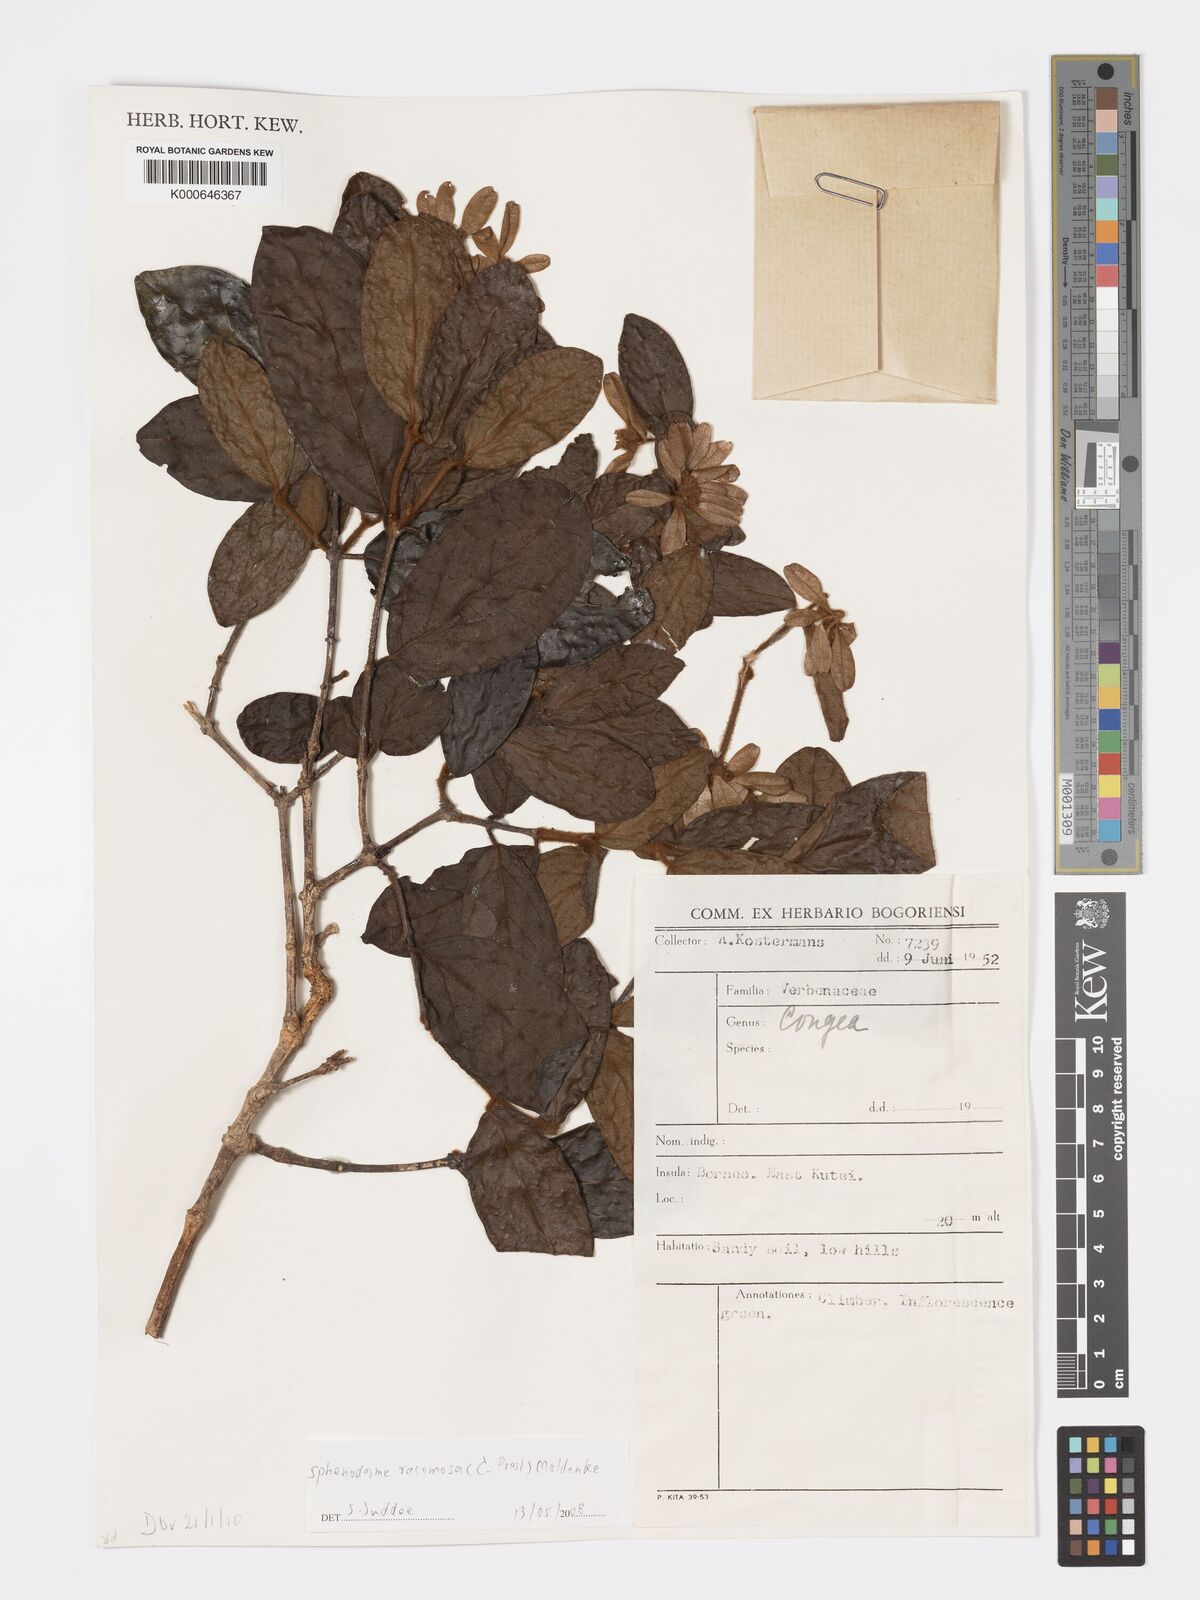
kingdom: Plantae
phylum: Tracheophyta
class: Magnoliopsida
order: Lamiales
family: Lamiaceae
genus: Sphenodesme
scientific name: Sphenodesme racemosa
